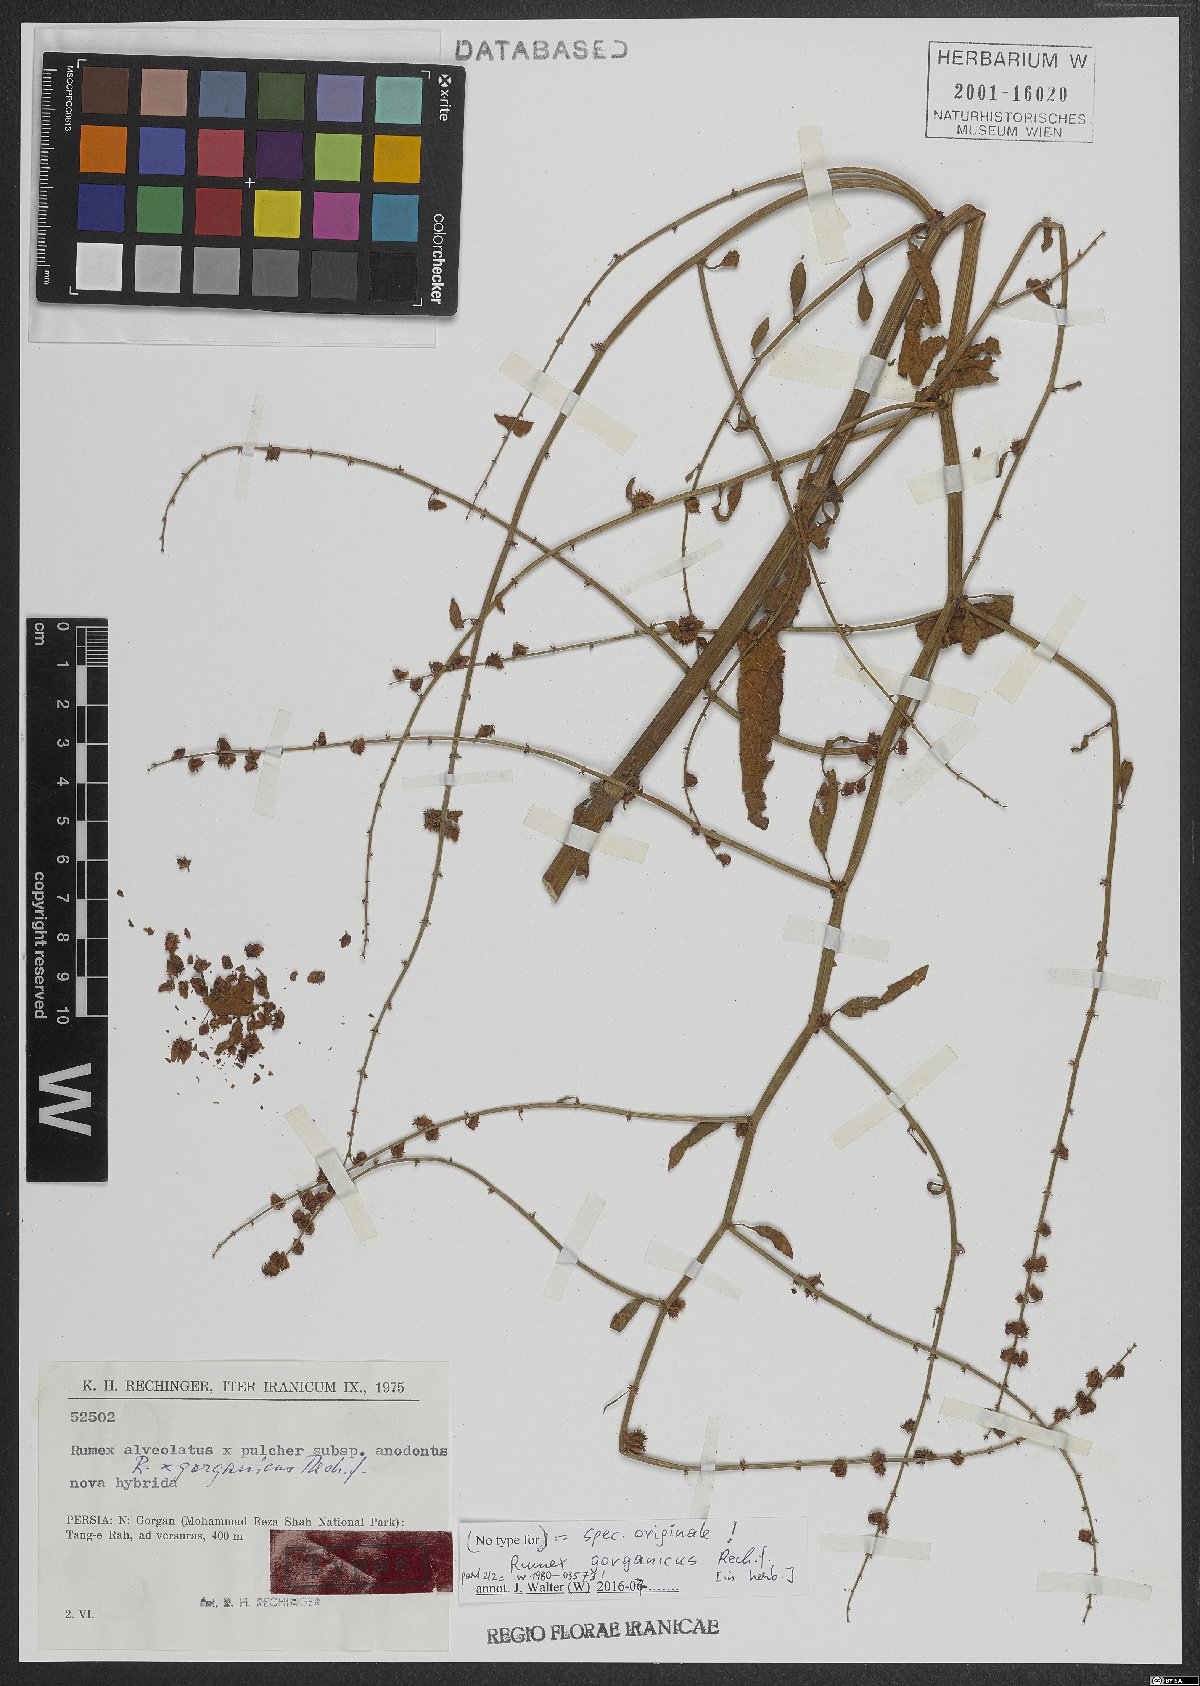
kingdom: Plantae
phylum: Tracheophyta
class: Magnoliopsida
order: Caryophyllales
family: Polygonaceae
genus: Rumex
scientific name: Rumex
